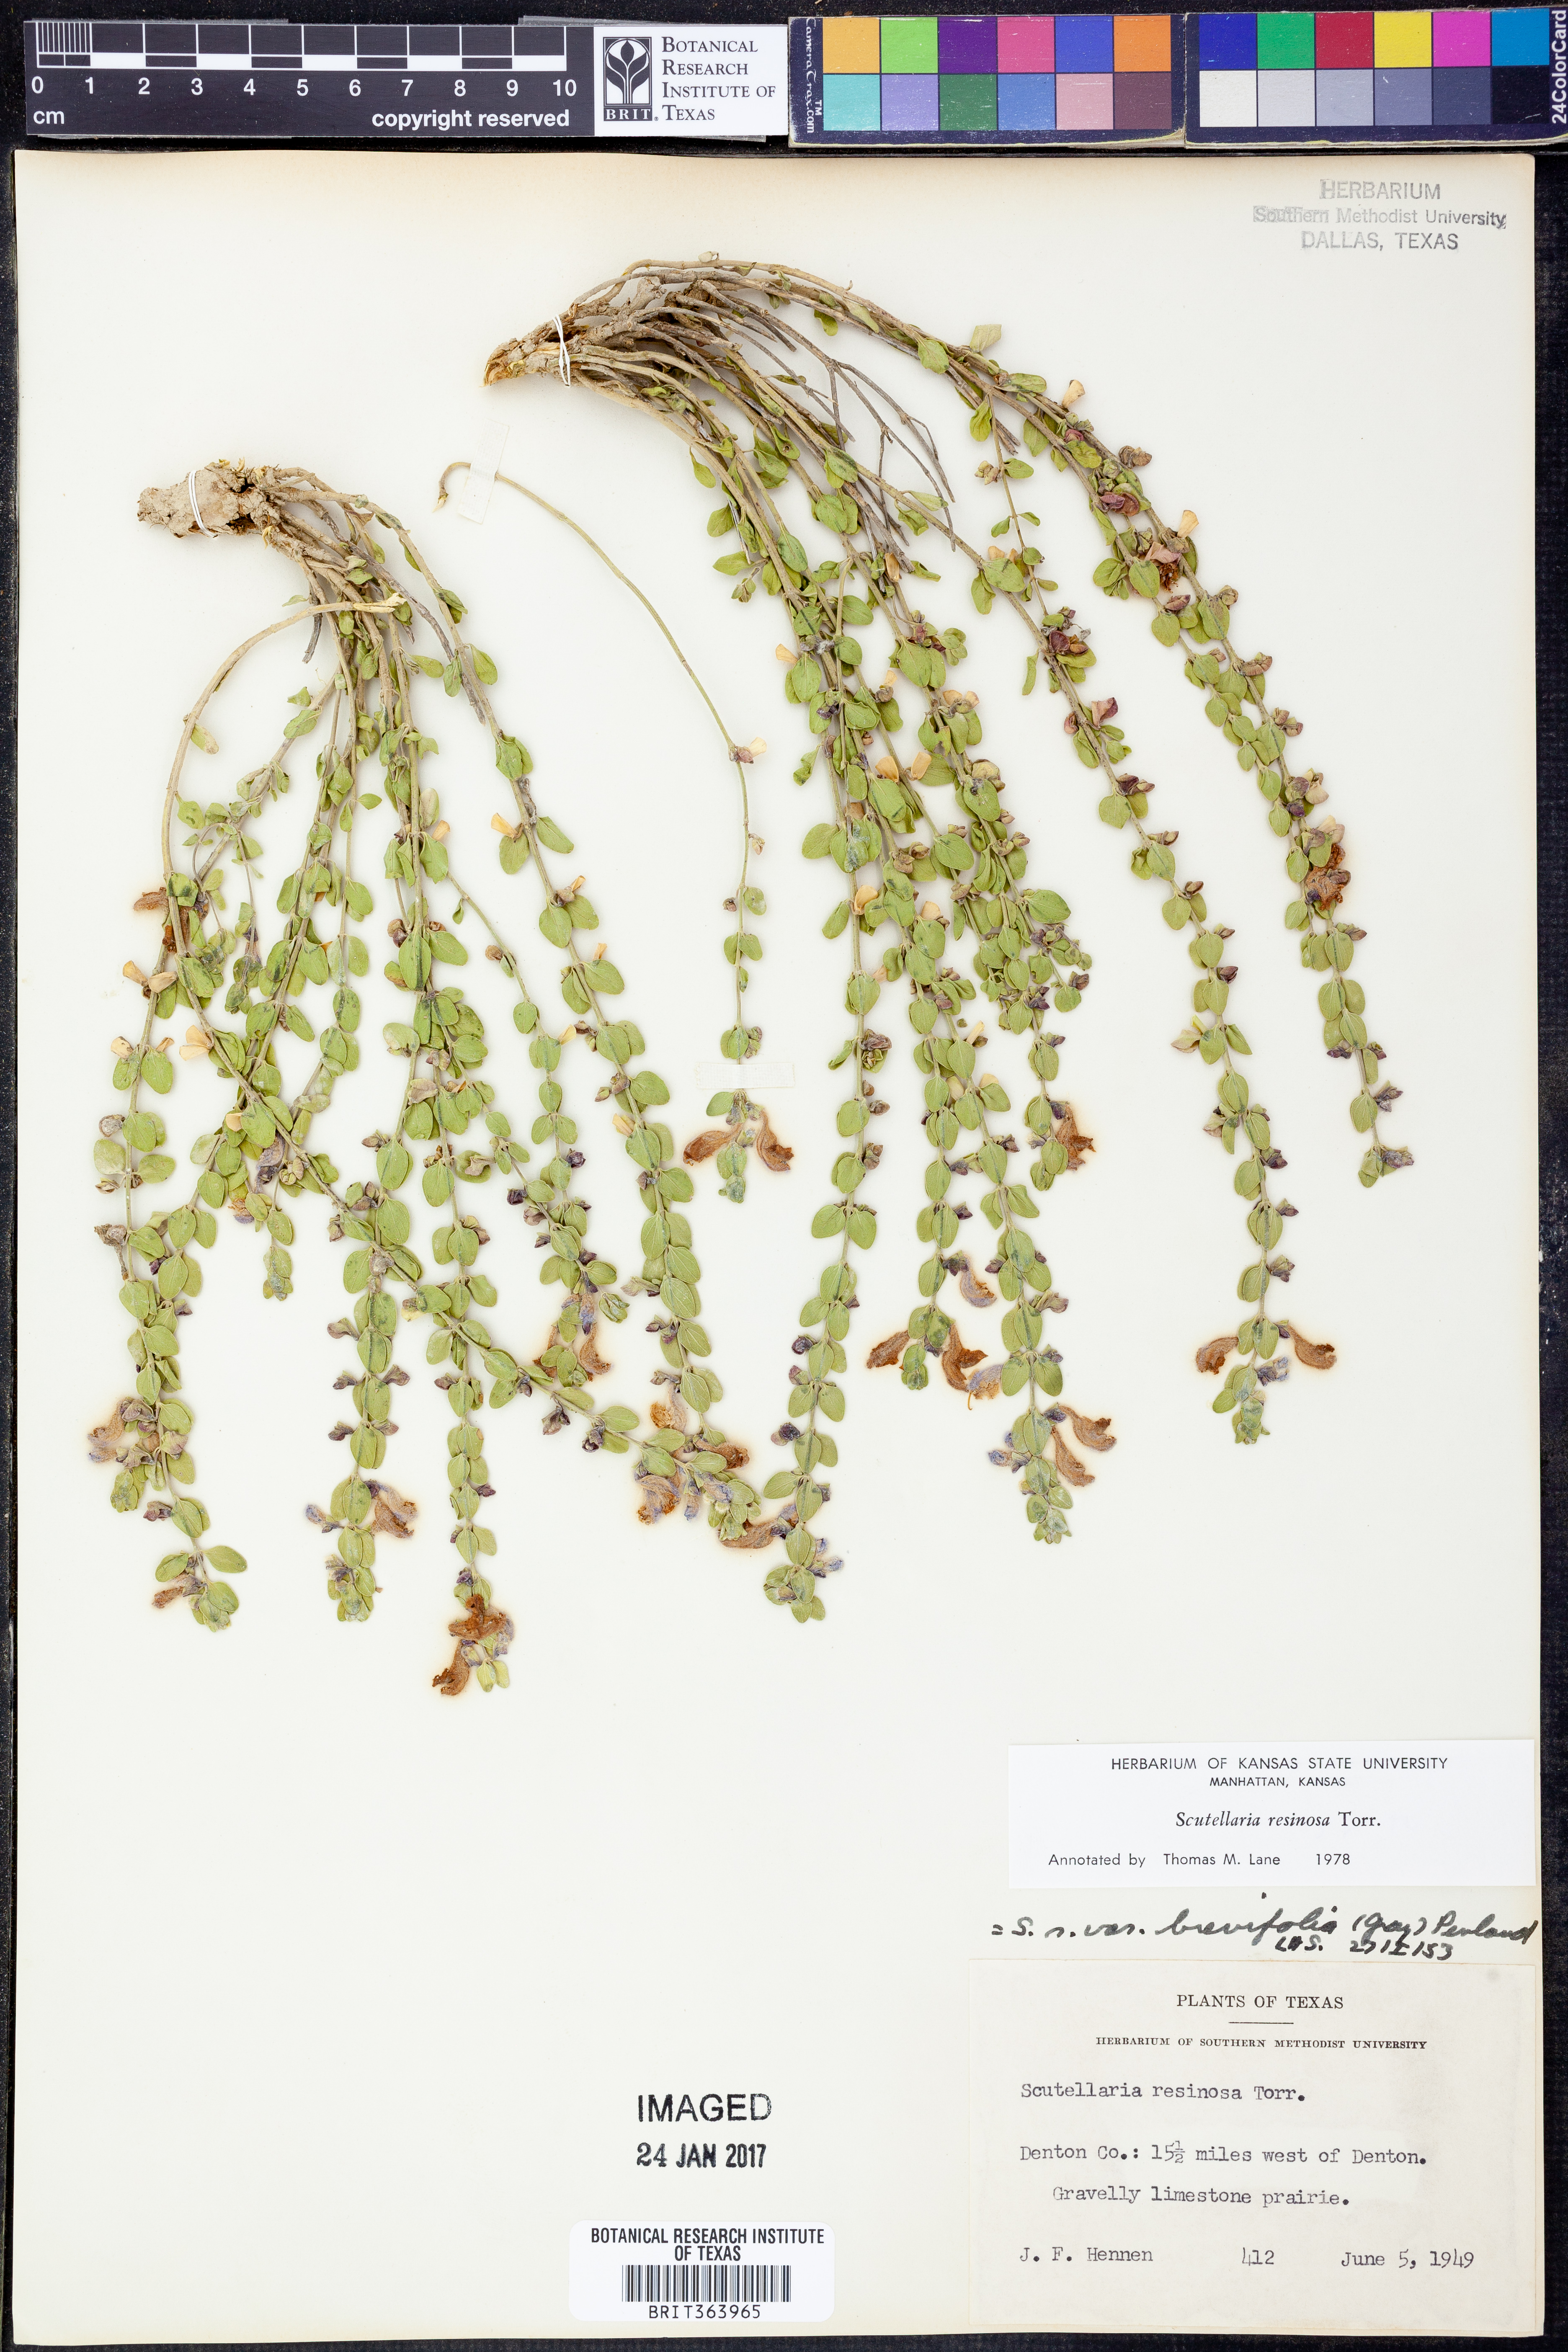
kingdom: Plantae
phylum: Tracheophyta
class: Magnoliopsida
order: Lamiales
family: Lamiaceae
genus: Scutellaria
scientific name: Scutellaria resinosa
